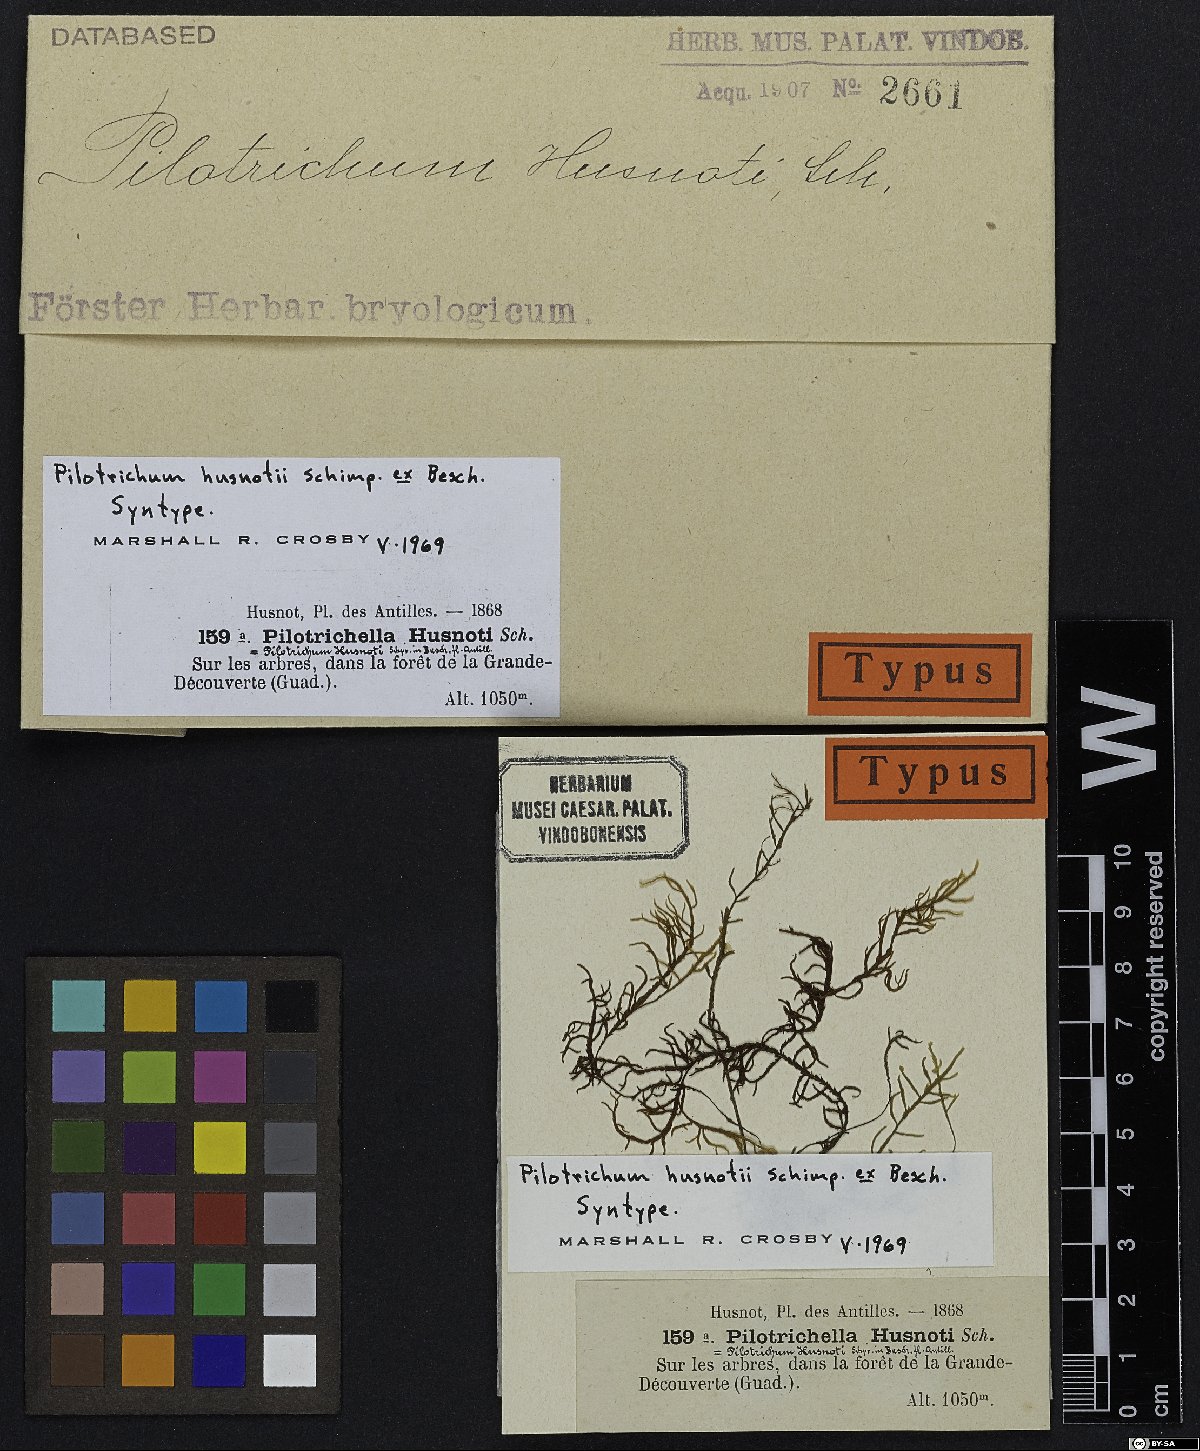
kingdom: Plantae
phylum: Bryophyta
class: Bryopsida
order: Hookeriales
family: Pilotrichaceae
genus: Pilotrichum
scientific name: Pilotrichum husnotii
